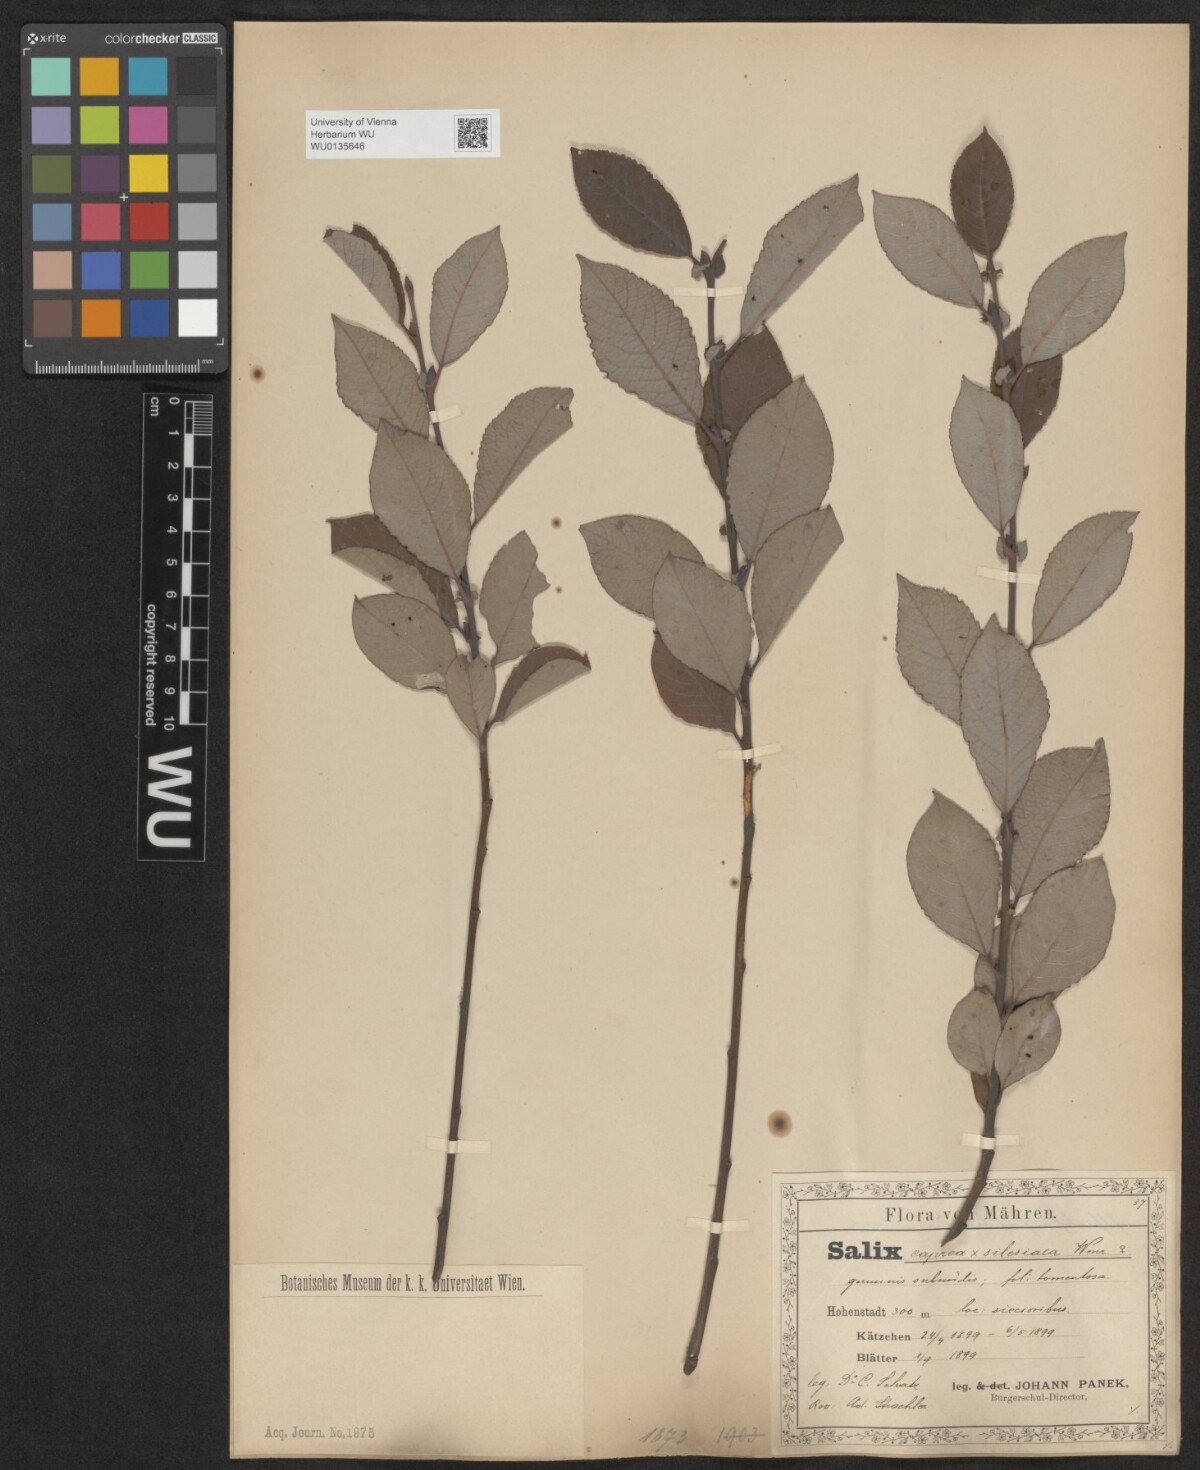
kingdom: Plantae
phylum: Tracheophyta
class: Magnoliopsida
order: Malpighiales
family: Salicaceae
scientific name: Salicaceae
